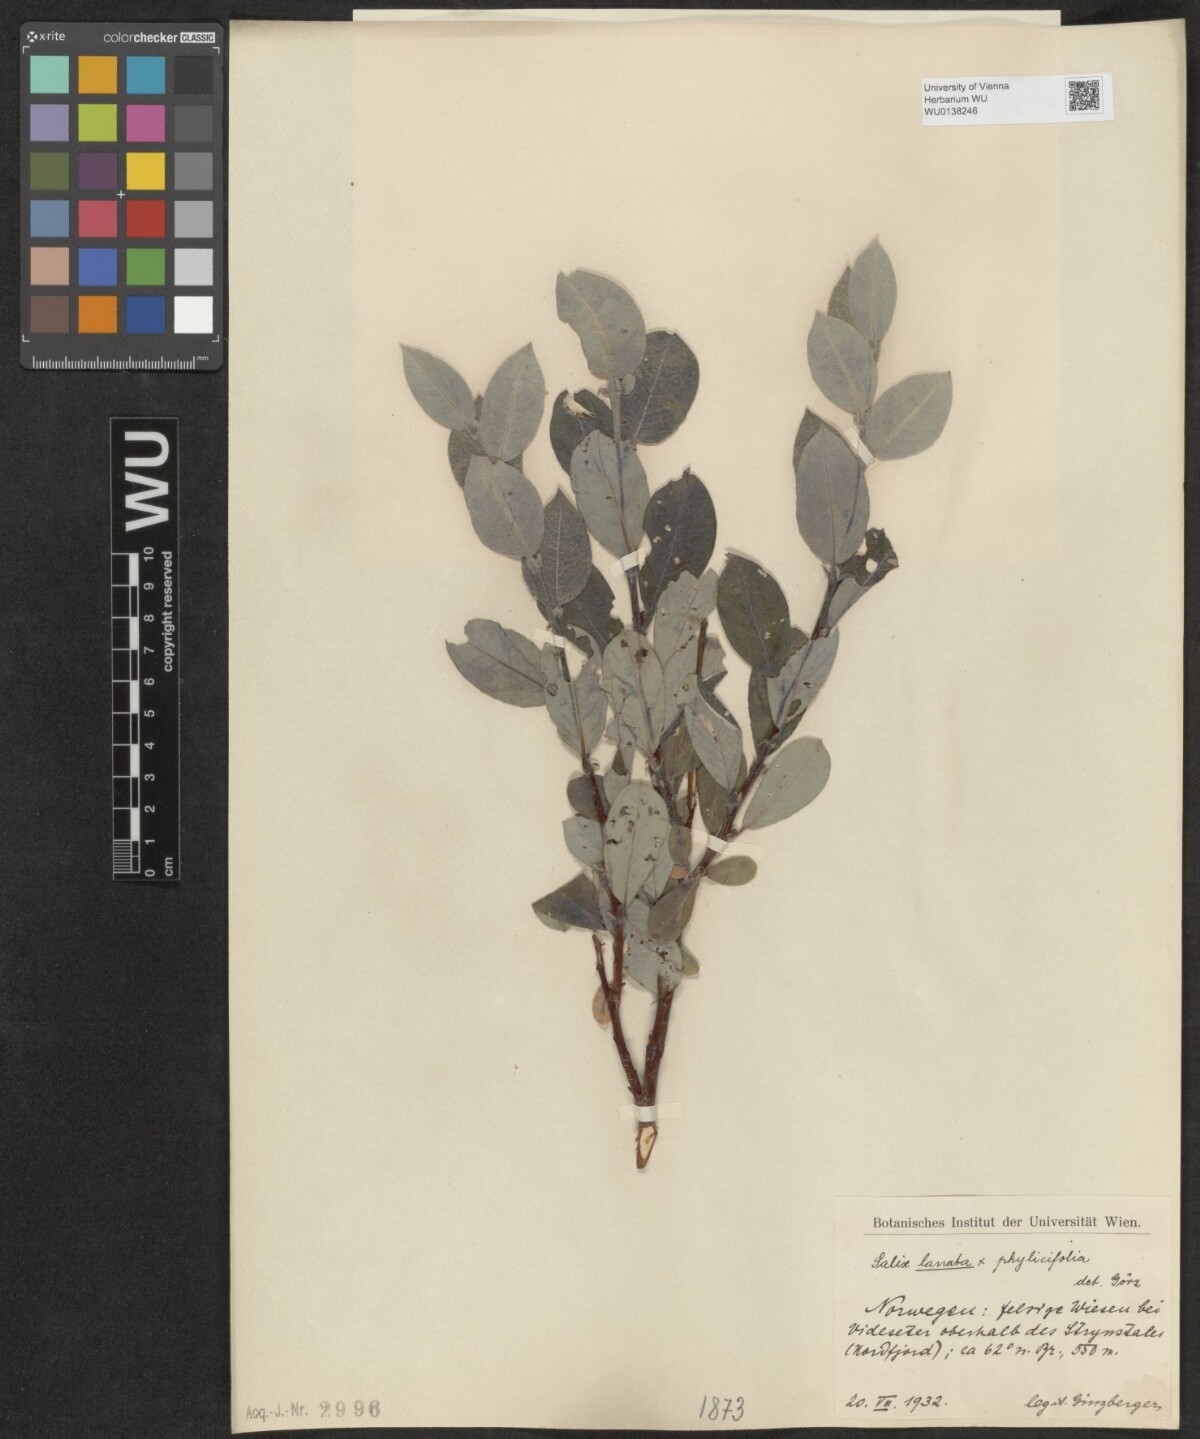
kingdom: Plantae
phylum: Tracheophyta
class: Magnoliopsida
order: Malpighiales
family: Salicaceae
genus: Salix
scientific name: Salix lapponum
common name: Downy willow
